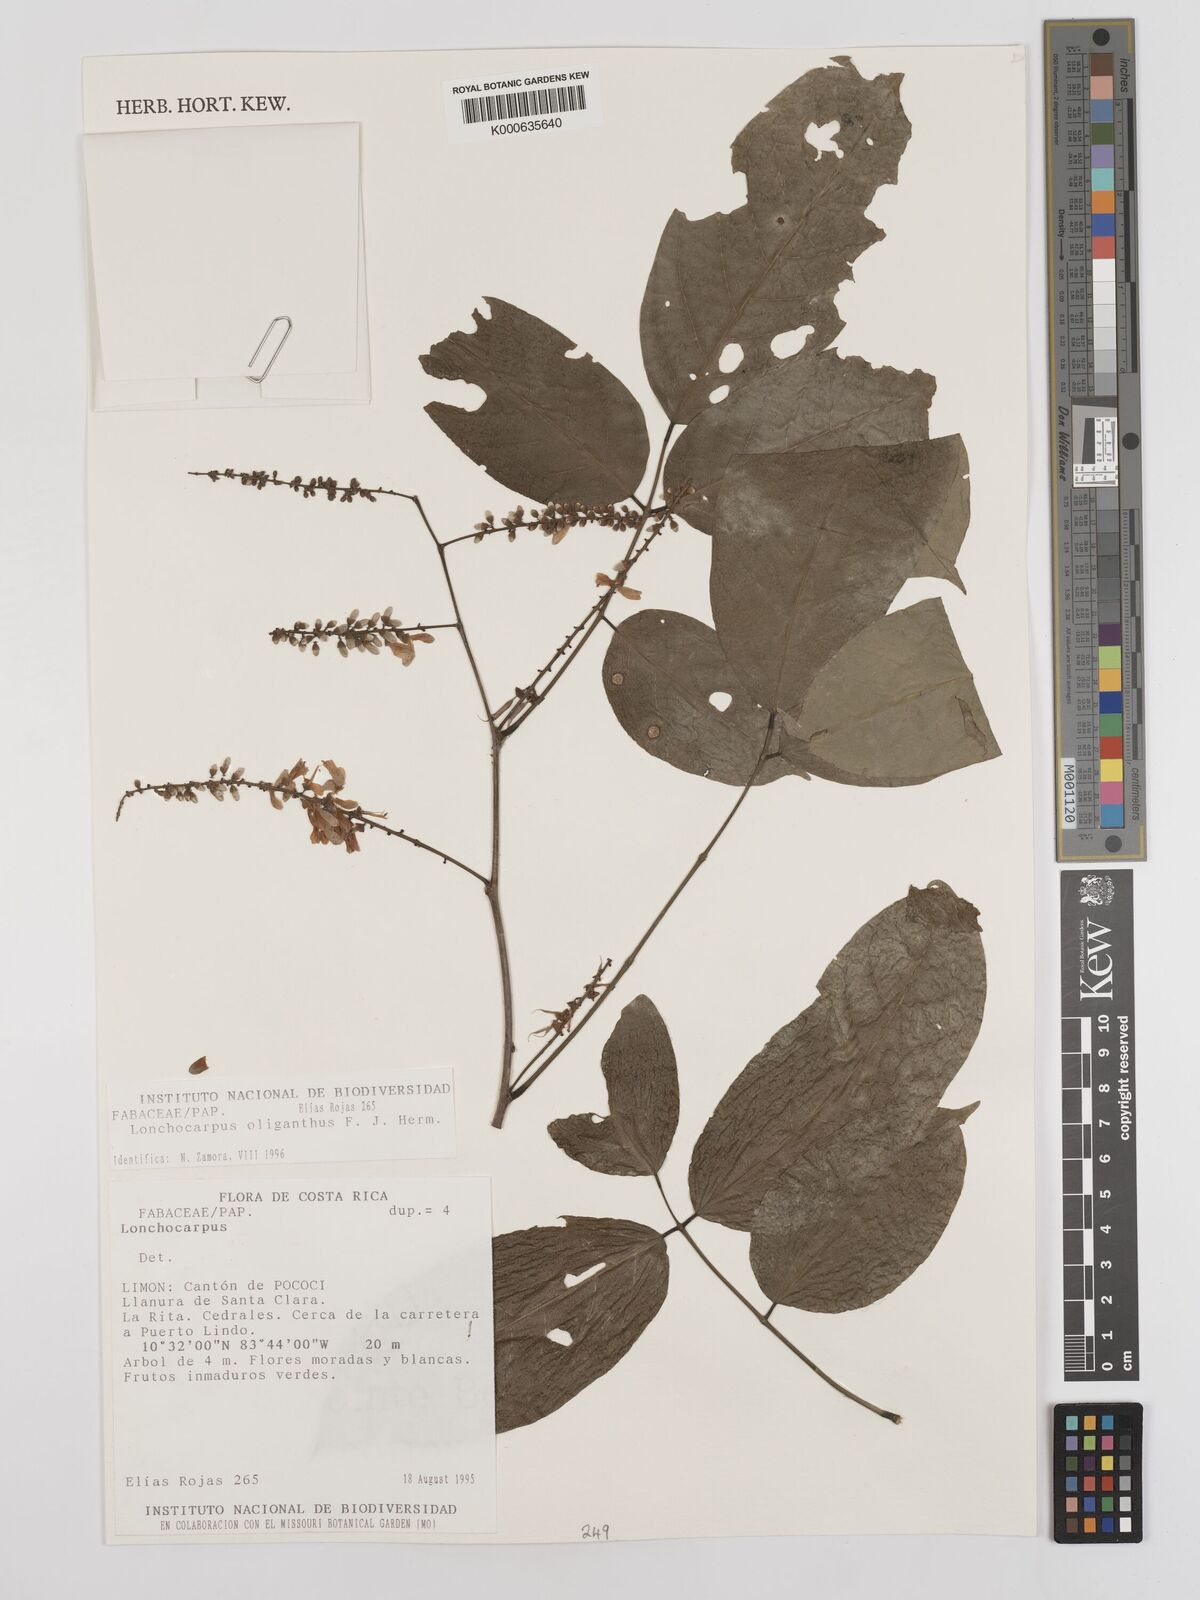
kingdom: Plantae
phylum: Tracheophyta
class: Magnoliopsida
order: Fabales
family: Fabaceae
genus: Lonchocarpus
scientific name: Lonchocarpus oliganthus
